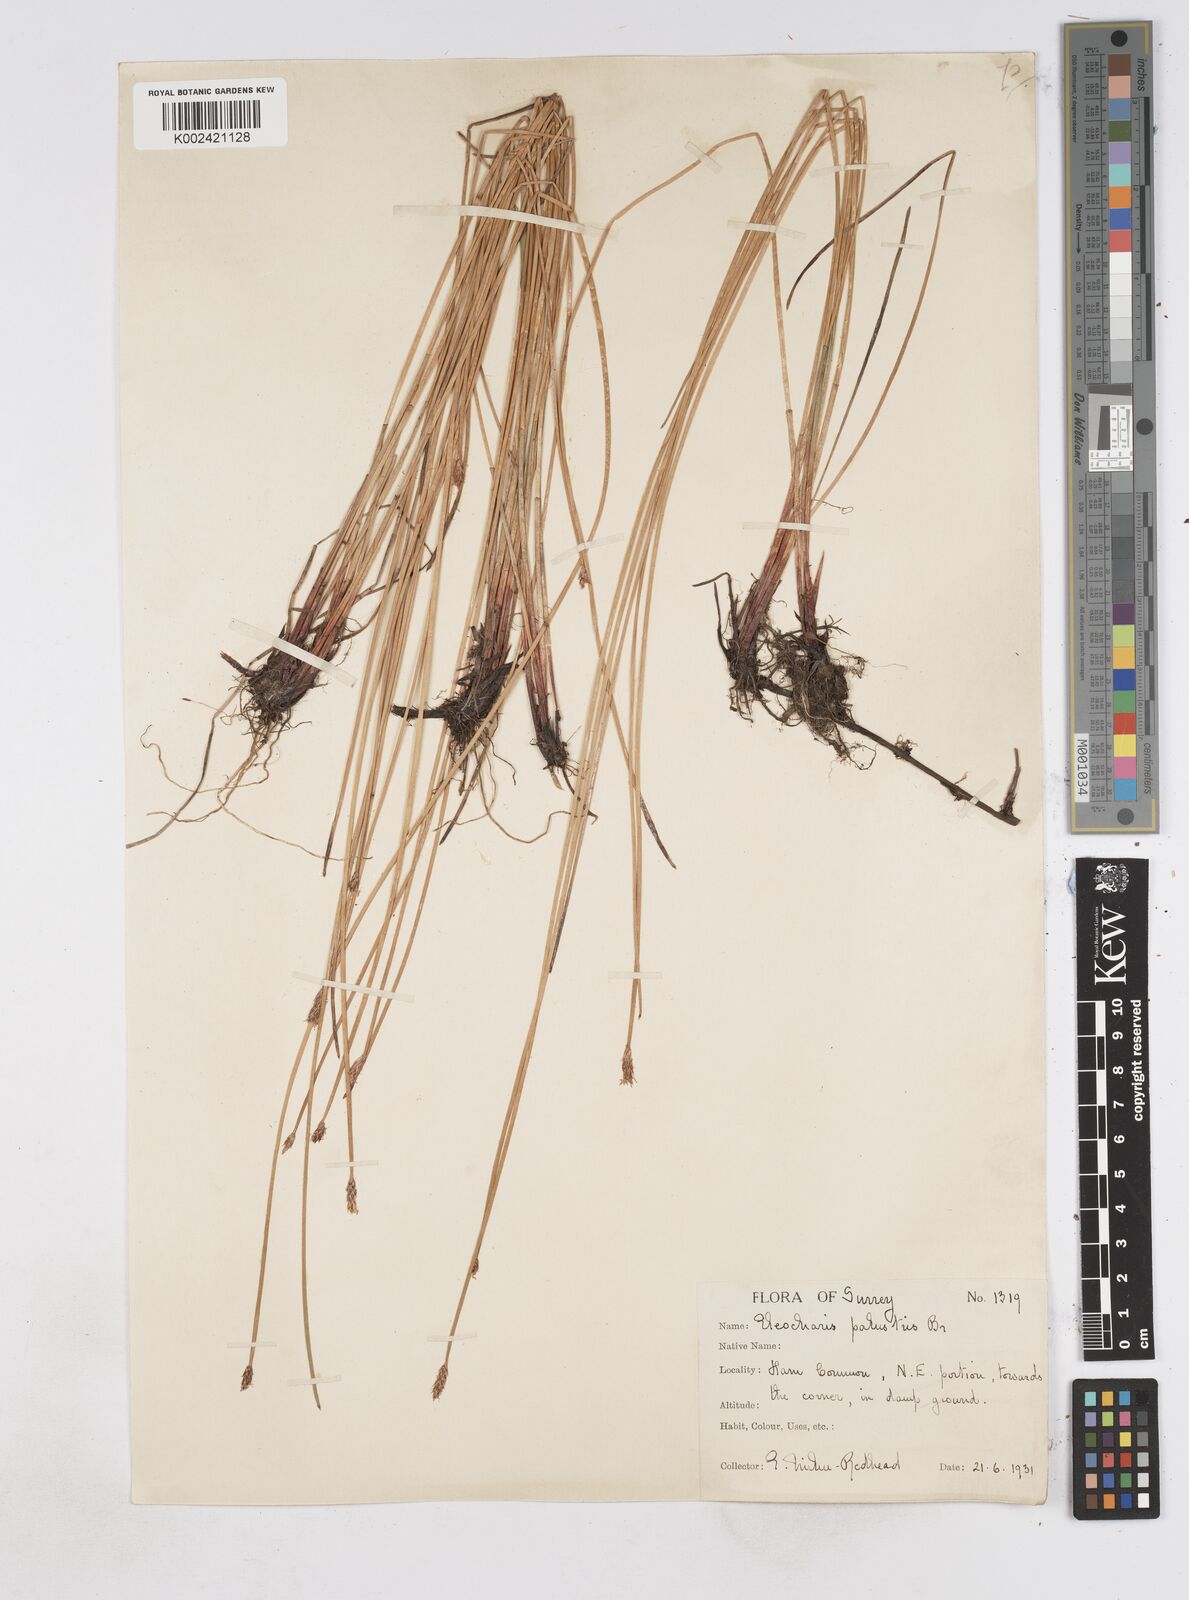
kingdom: Plantae
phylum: Tracheophyta
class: Liliopsida
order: Poales
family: Cyperaceae
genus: Eleocharis
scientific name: Eleocharis palustris
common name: Common spike-rush
